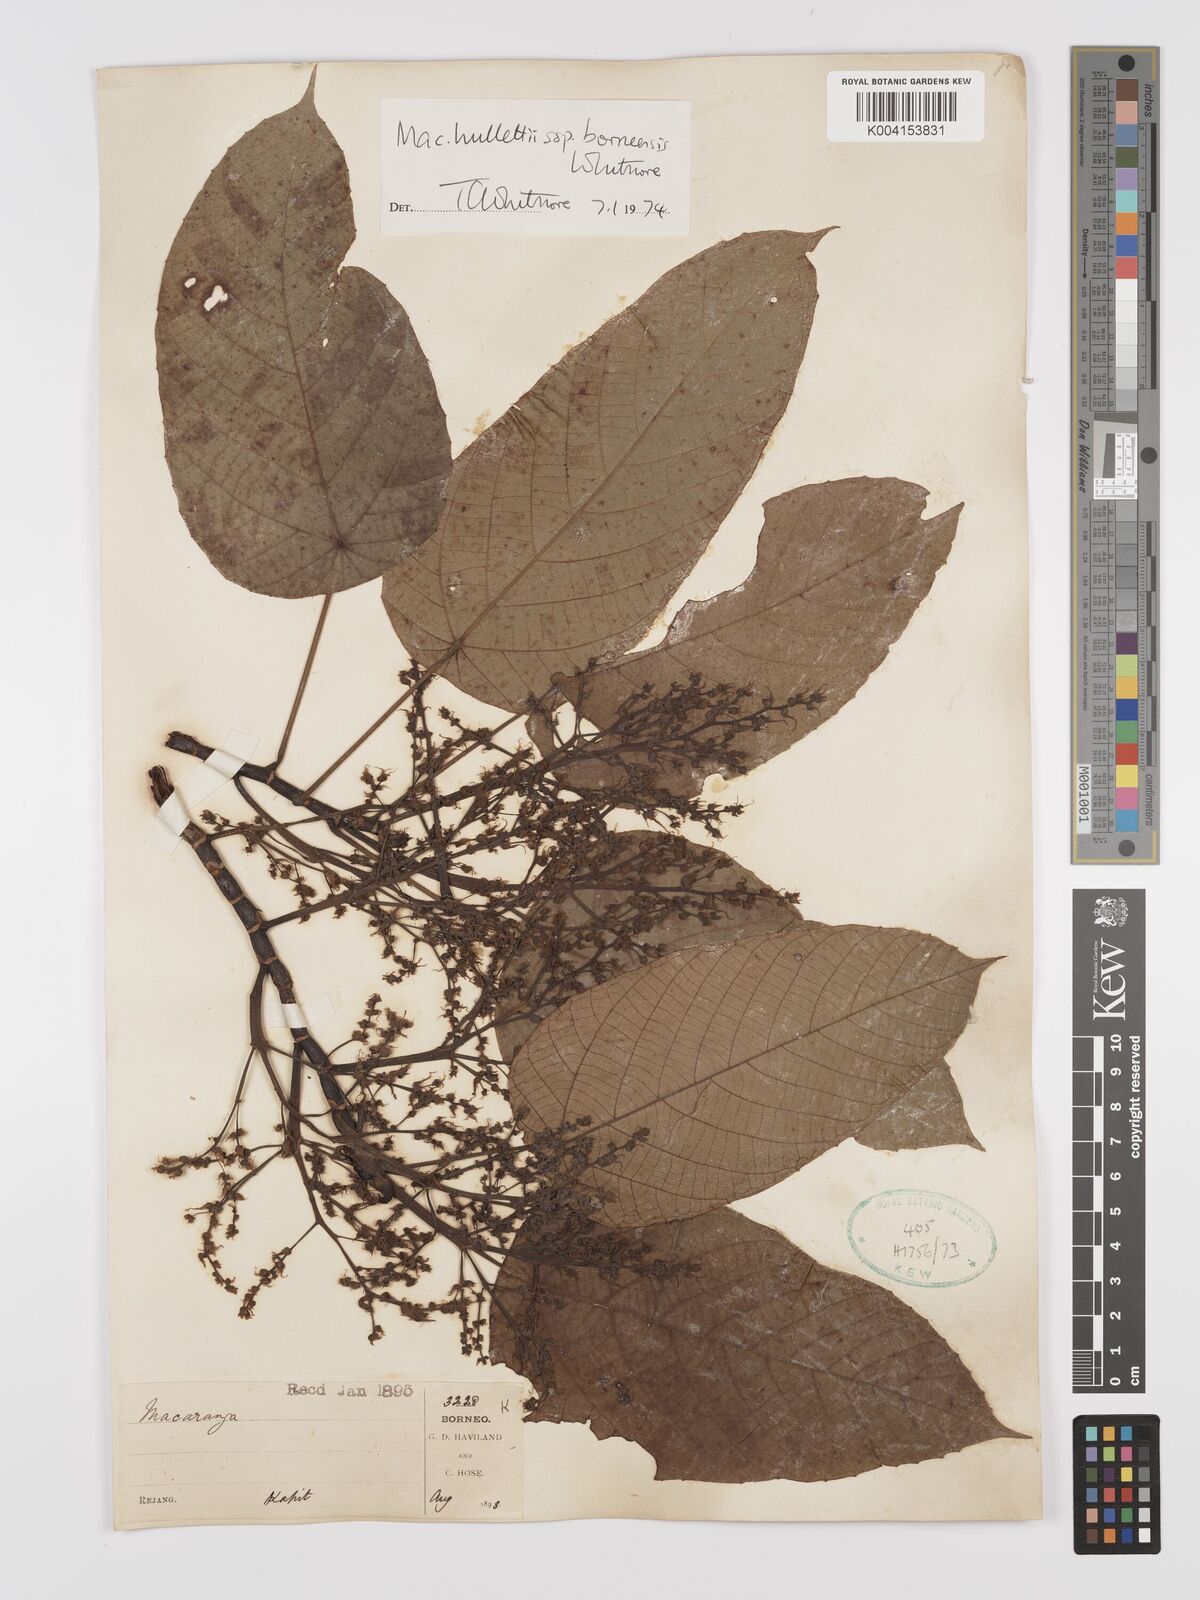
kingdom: Plantae
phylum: Tracheophyta
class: Magnoliopsida
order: Malpighiales
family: Euphorbiaceae
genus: Macaranga
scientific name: Macaranga hullettii
